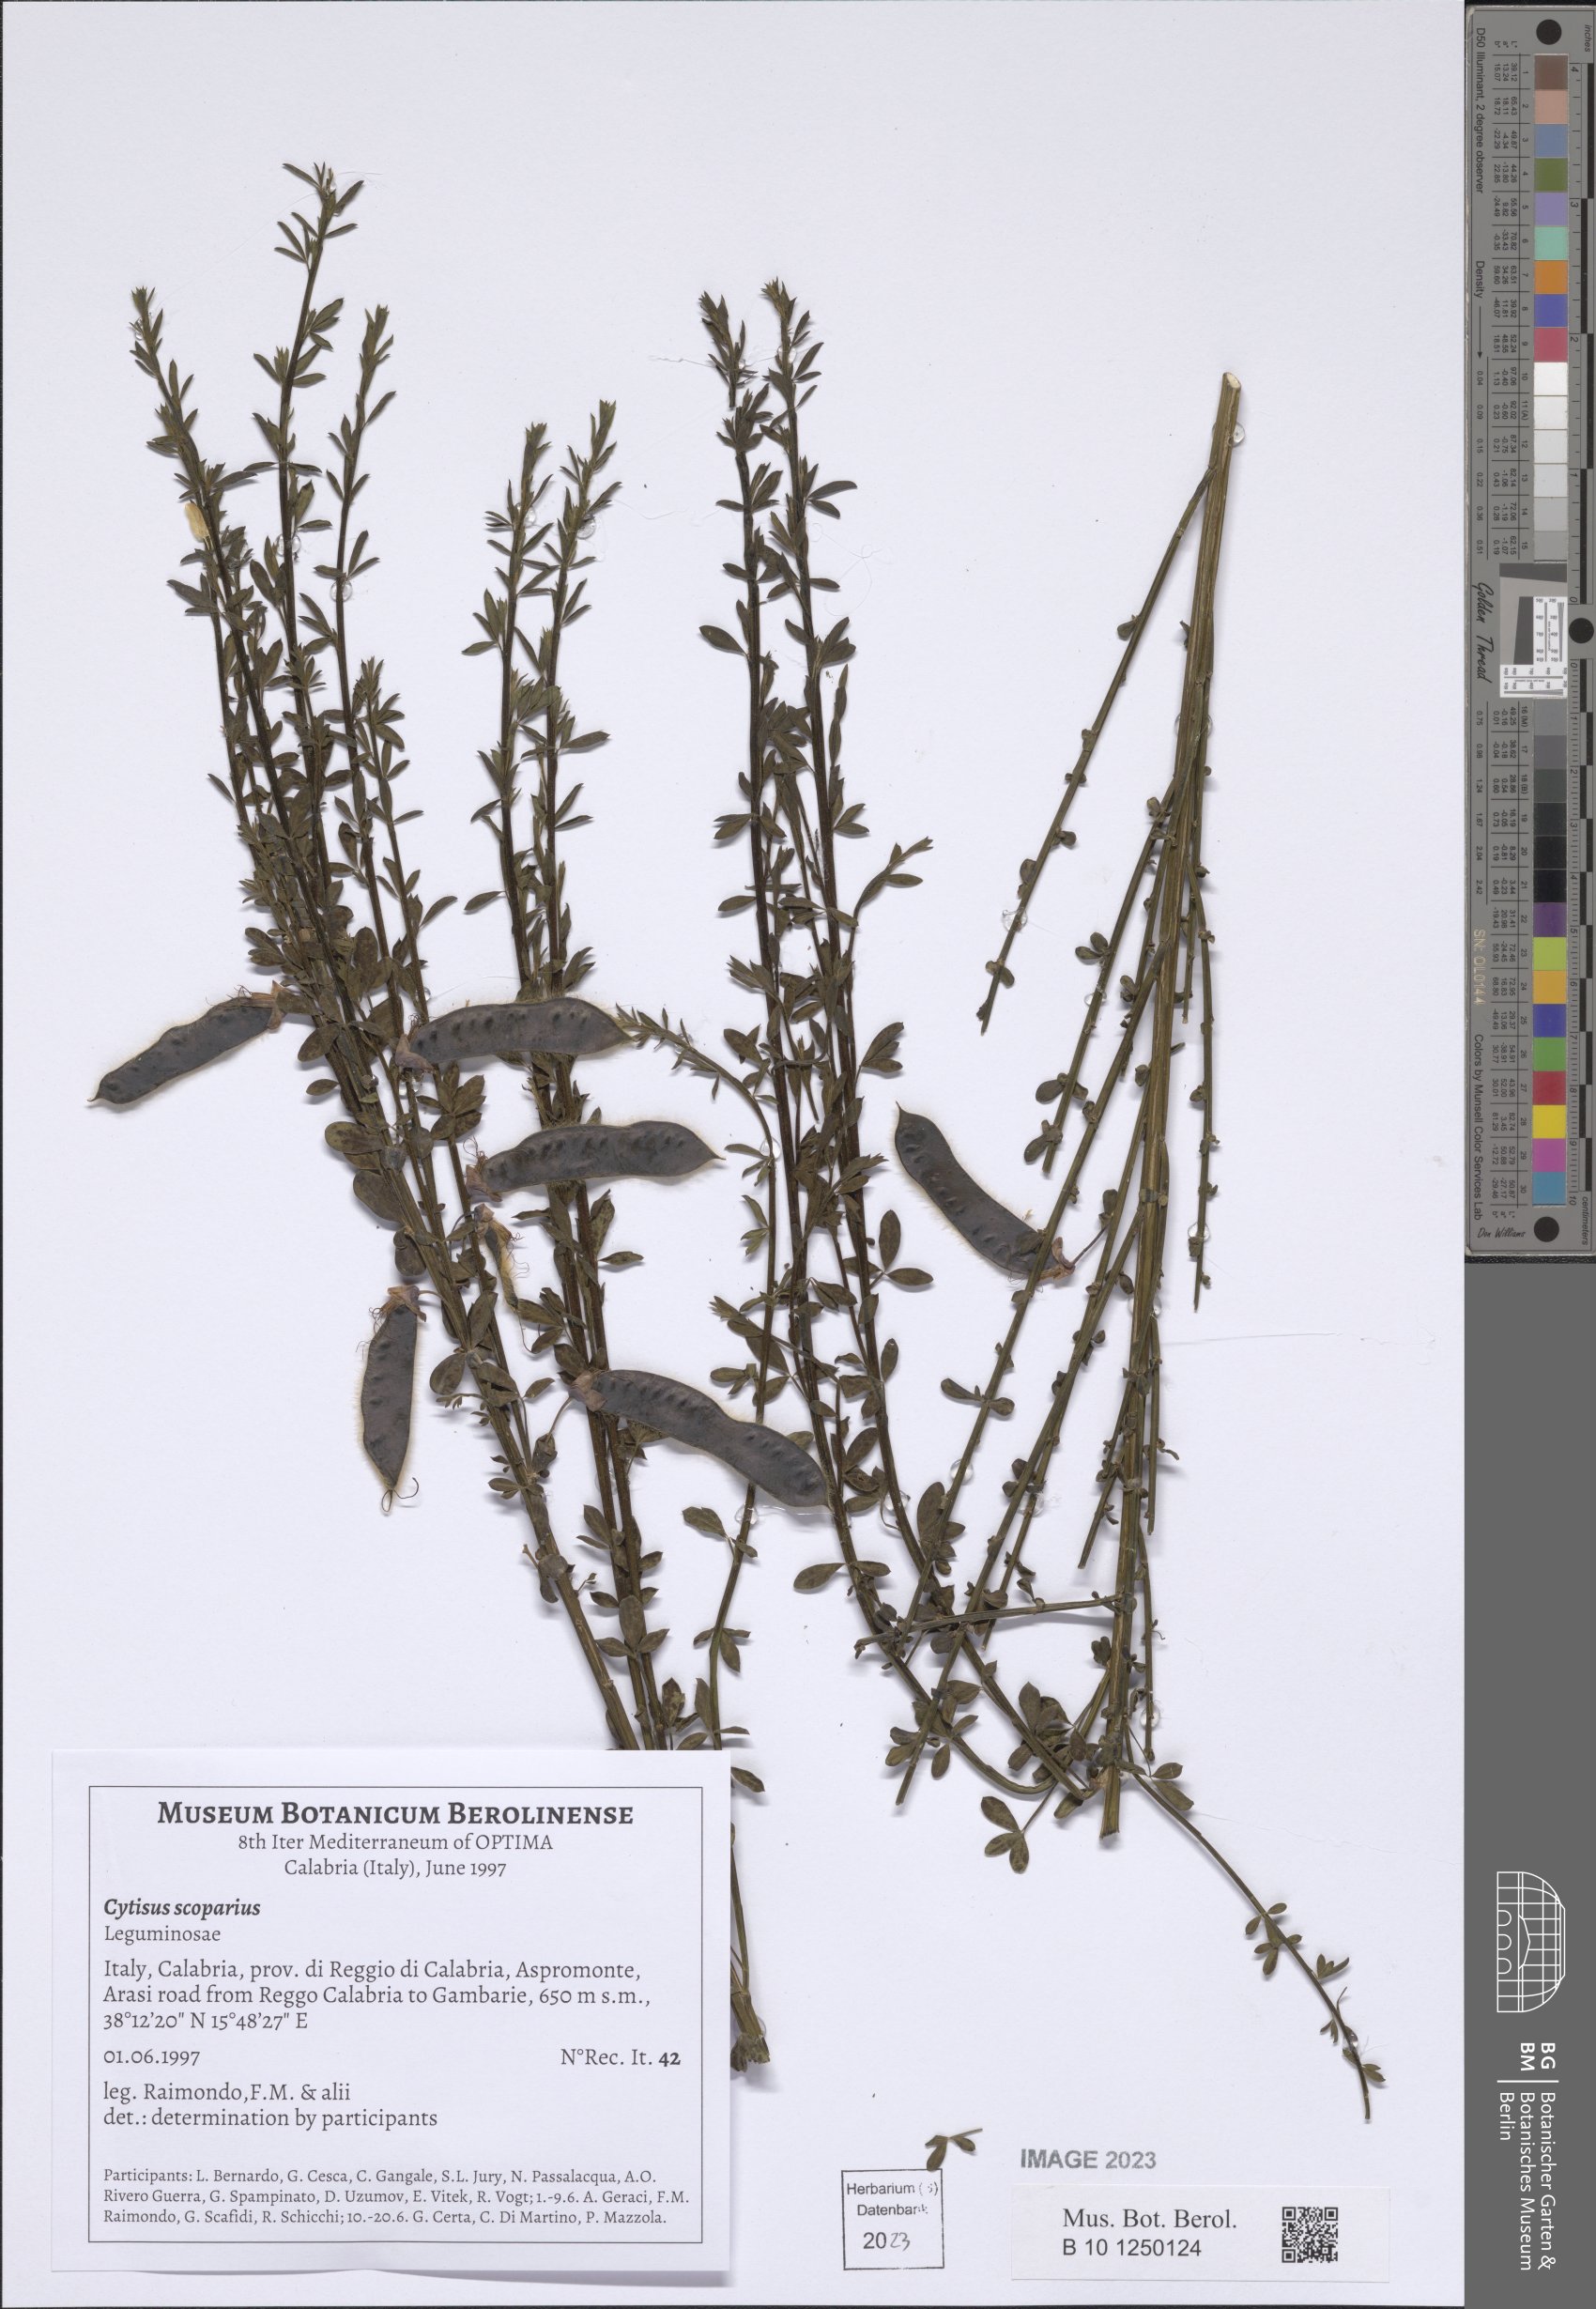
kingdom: Plantae
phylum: Tracheophyta
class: Magnoliopsida
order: Fabales
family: Fabaceae
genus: Cytisus
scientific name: Cytisus scoparius
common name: Scotch broom
